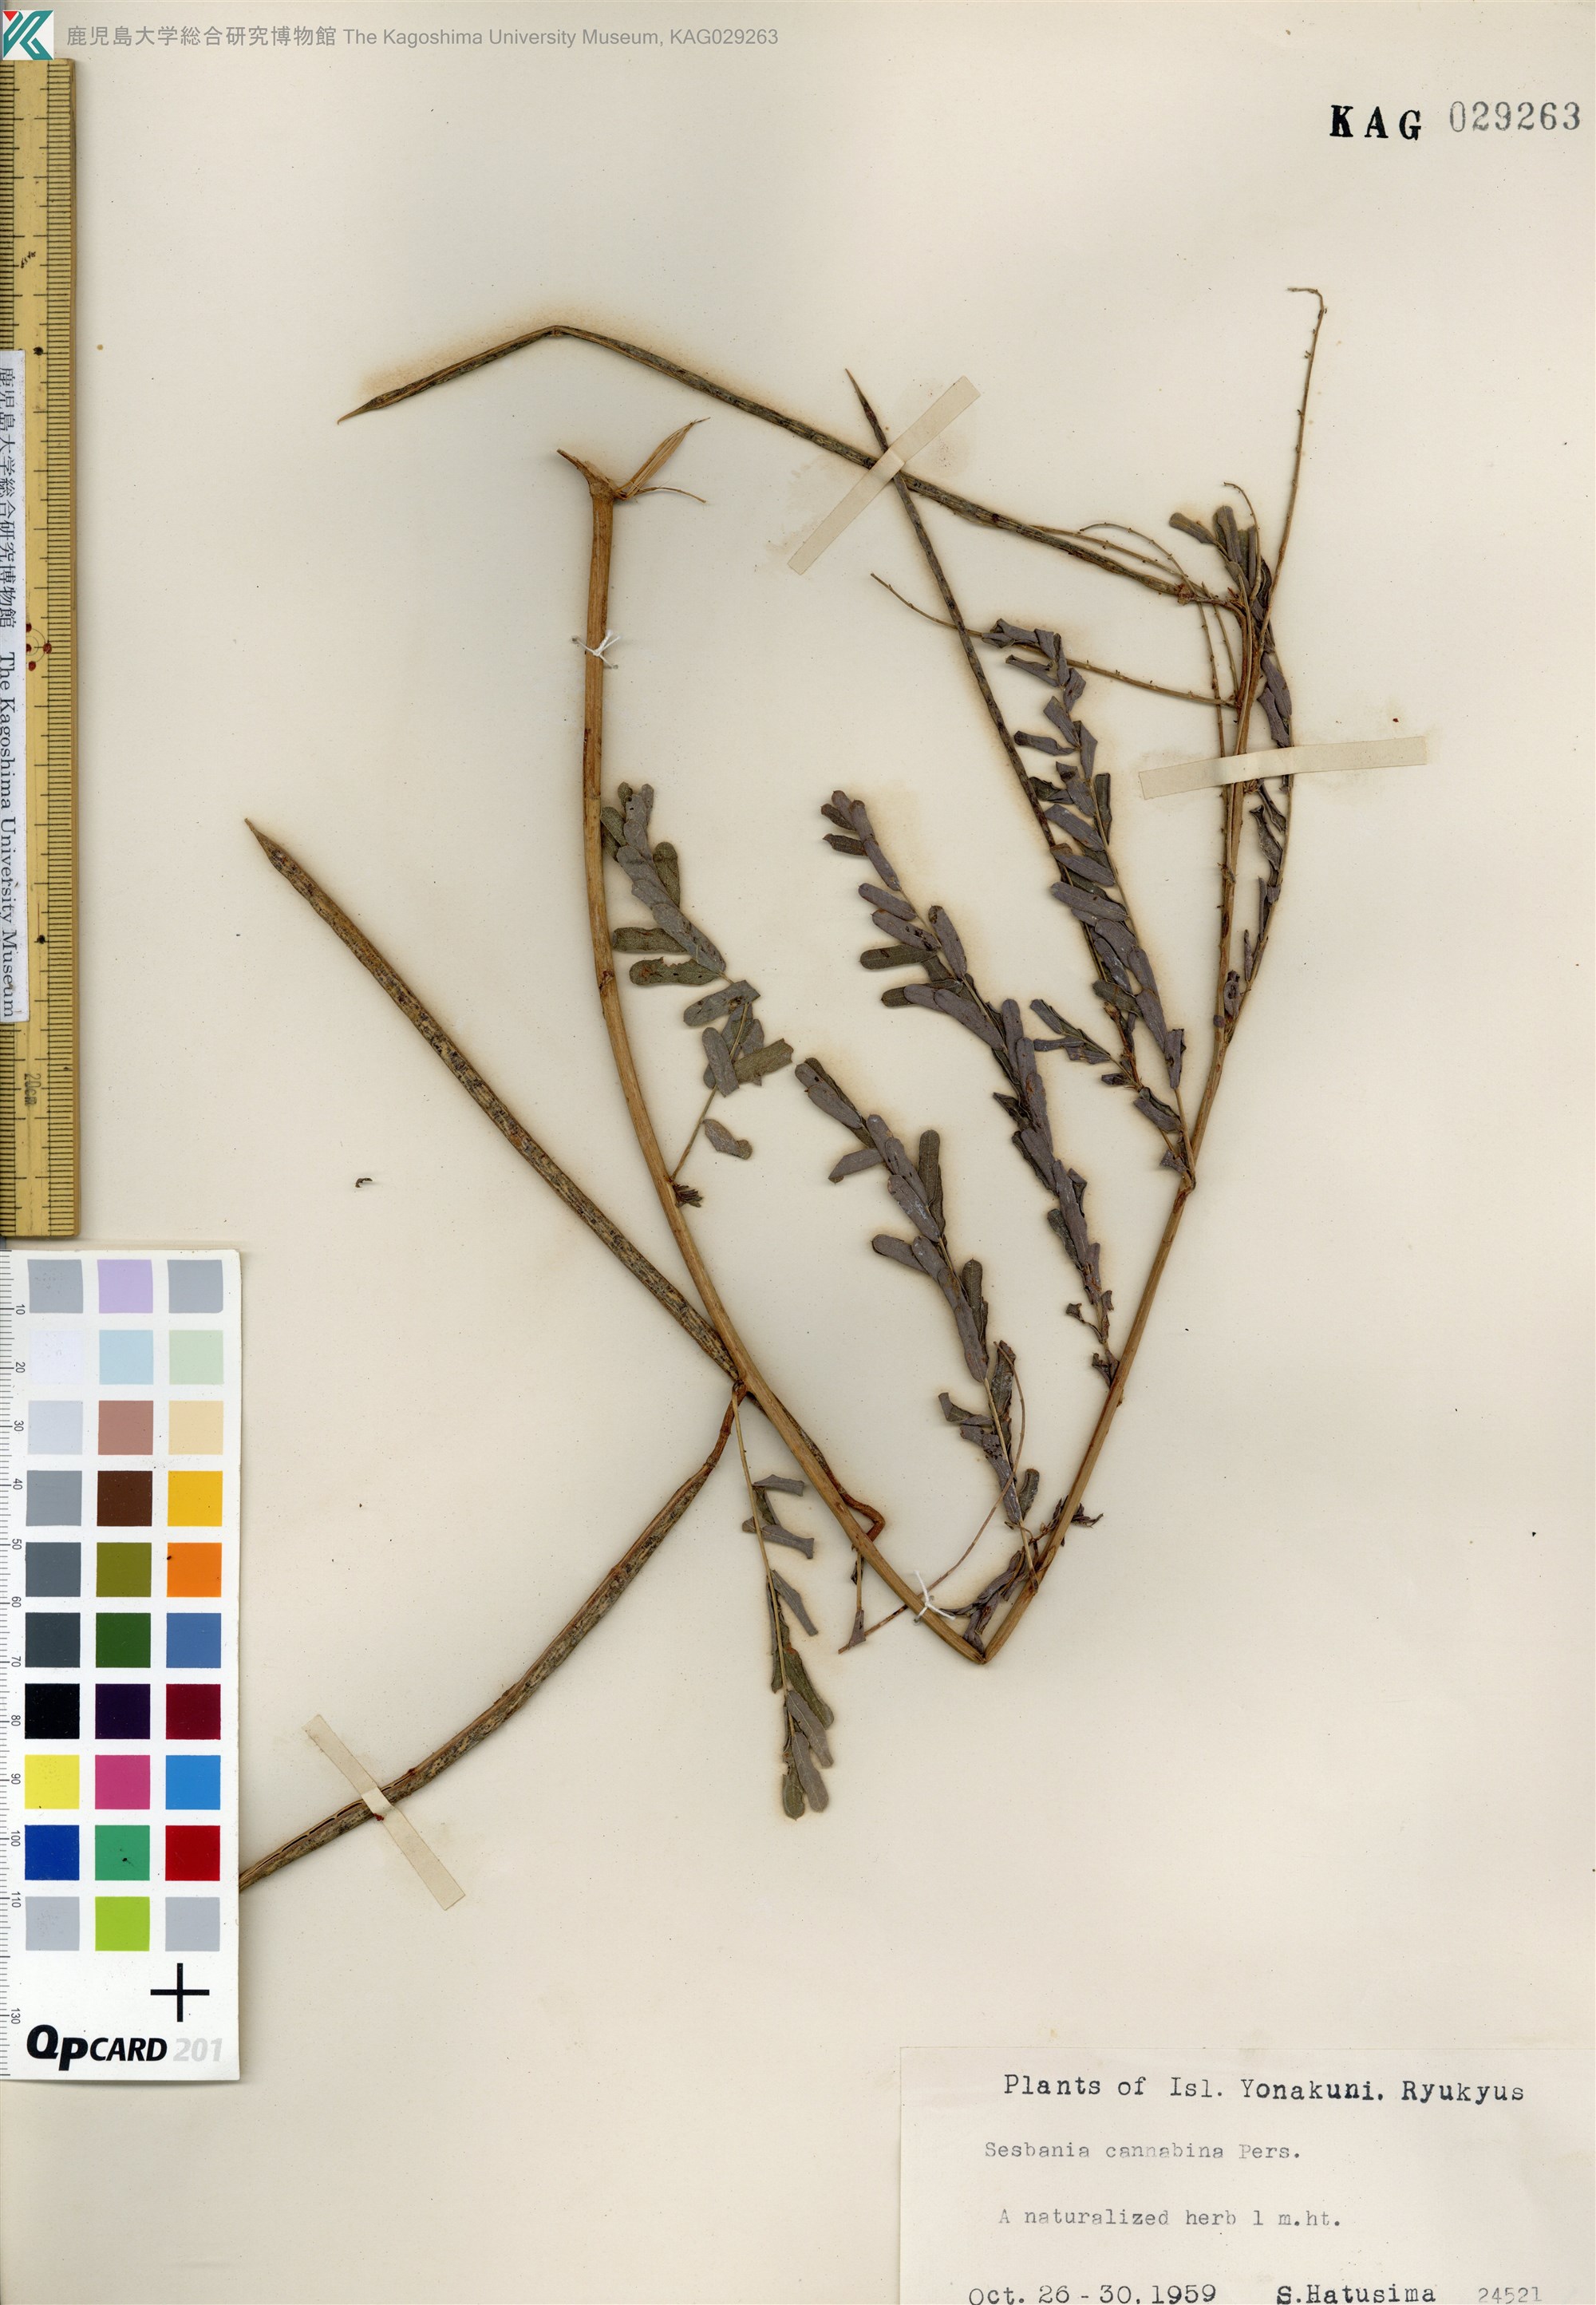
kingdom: Plantae
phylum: Tracheophyta
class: Magnoliopsida
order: Fabales
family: Fabaceae
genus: Sesbania
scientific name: Sesbania cannabina
